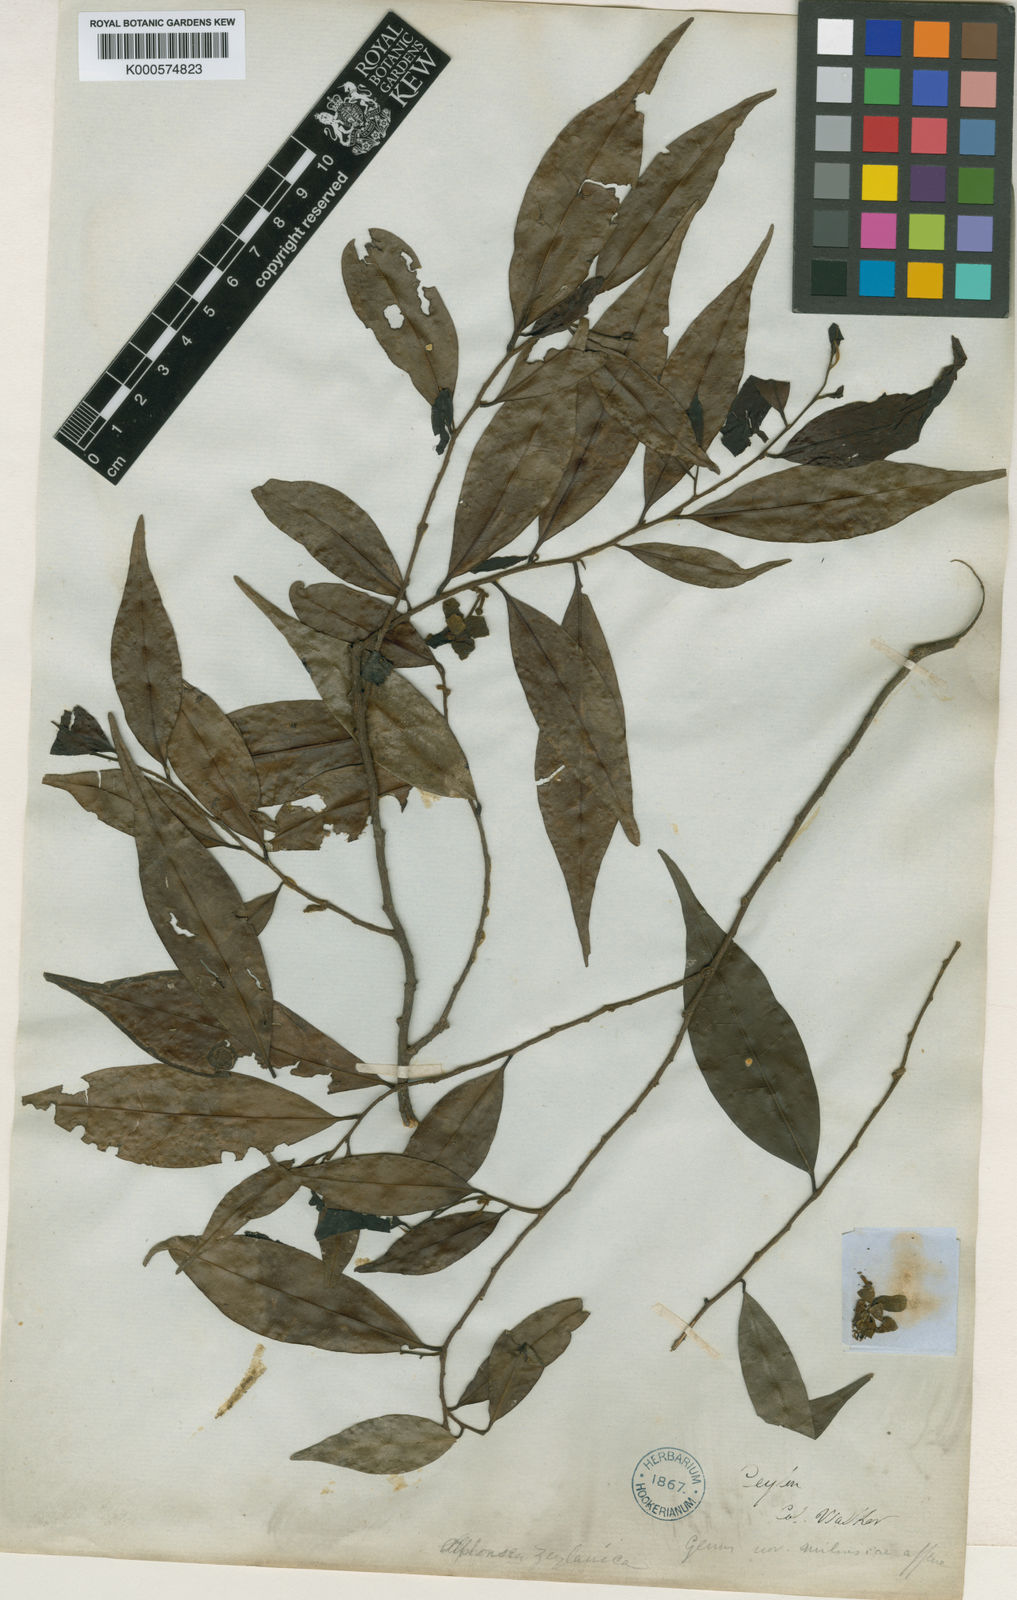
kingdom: Plantae
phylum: Tracheophyta
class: Magnoliopsida
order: Magnoliales
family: Annonaceae
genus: Alphonsea
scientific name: Alphonsea zeylanica
